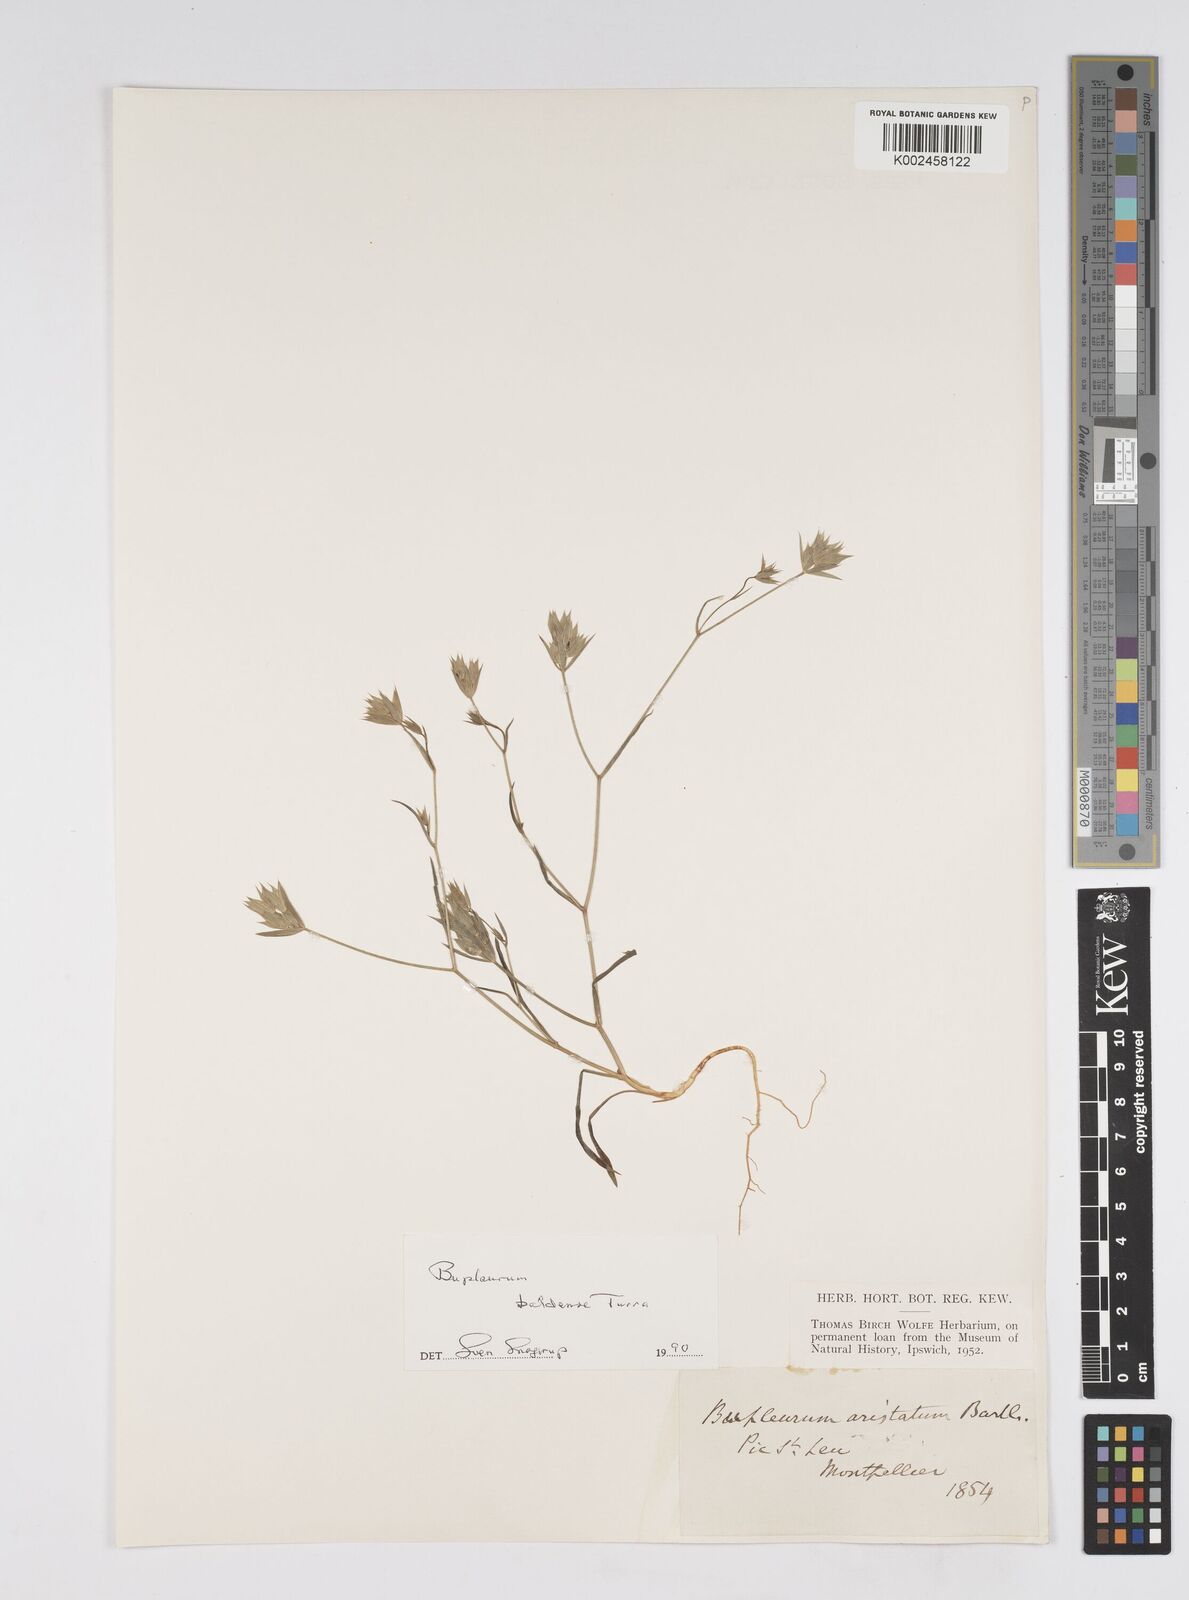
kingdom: Plantae
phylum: Tracheophyta
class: Magnoliopsida
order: Apiales
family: Apiaceae
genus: Bupleurum
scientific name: Bupleurum baldense
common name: Small hare's-ear
